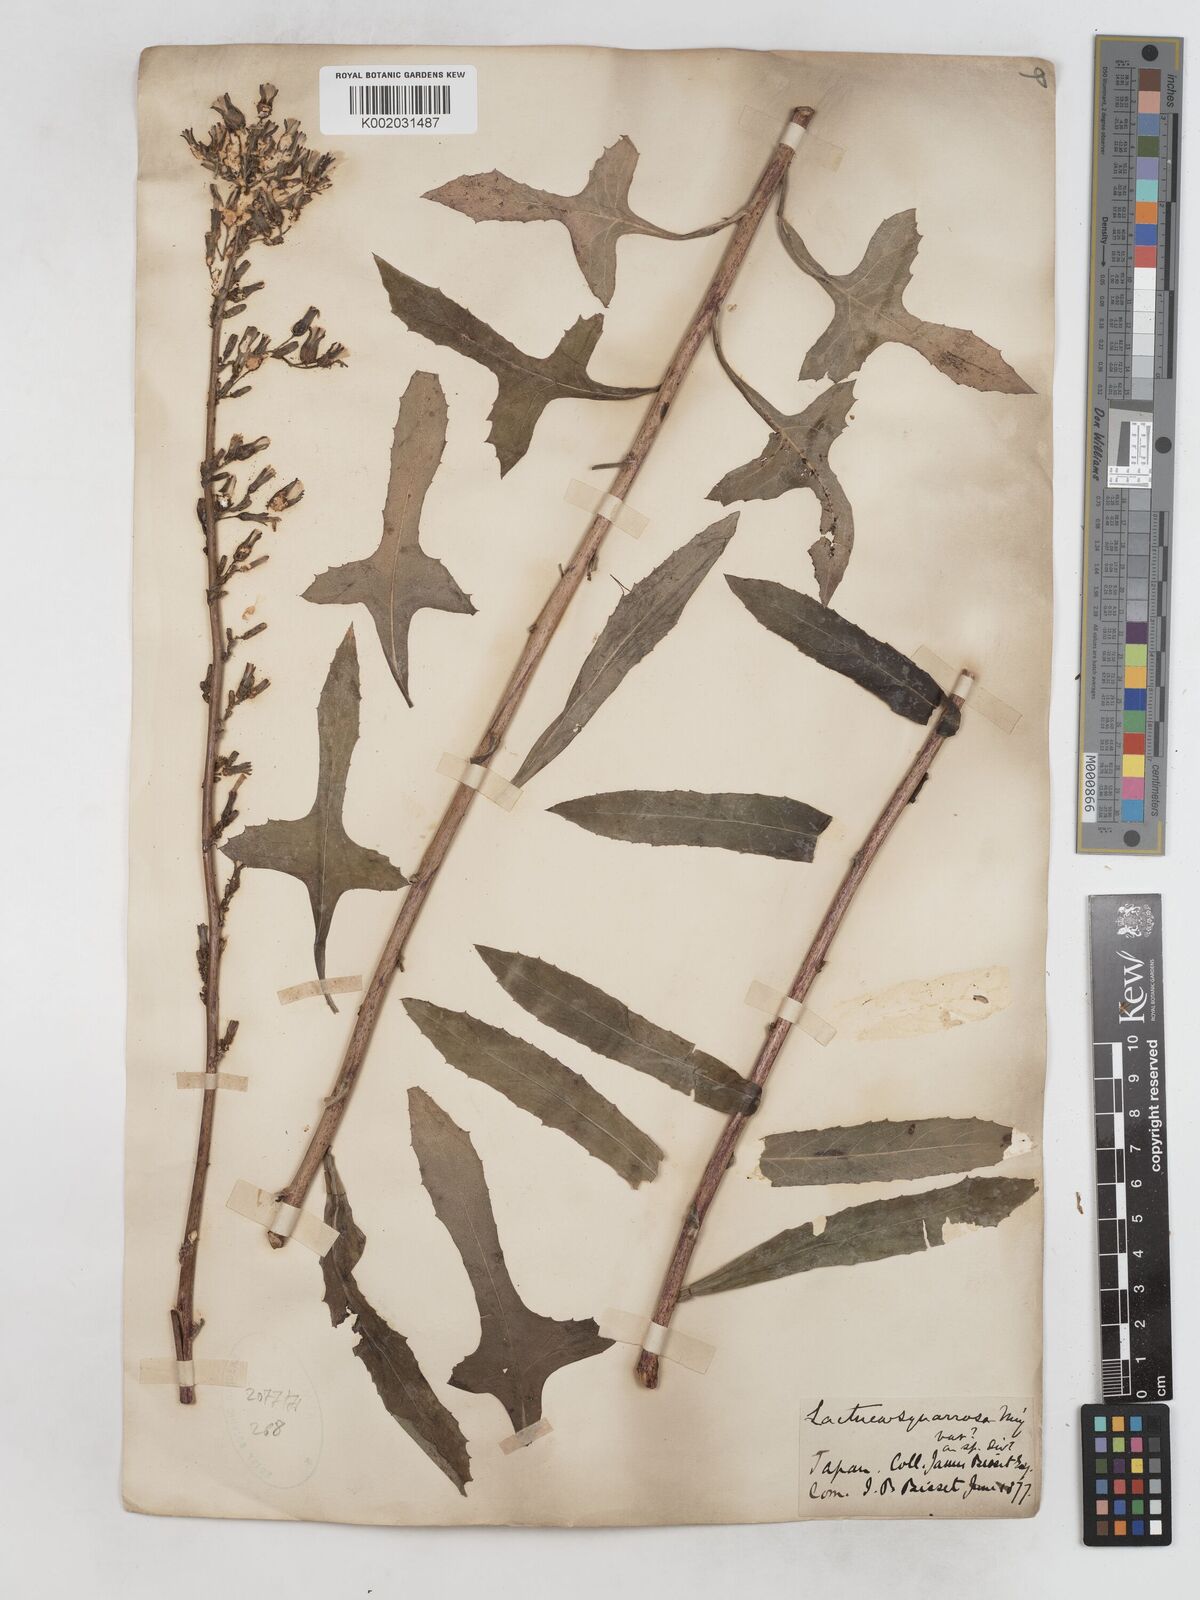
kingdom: Plantae
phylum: Tracheophyta
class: Magnoliopsida
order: Asterales
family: Asteraceae
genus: Lactuca
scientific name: Lactuca indica
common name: Wild lettuce
